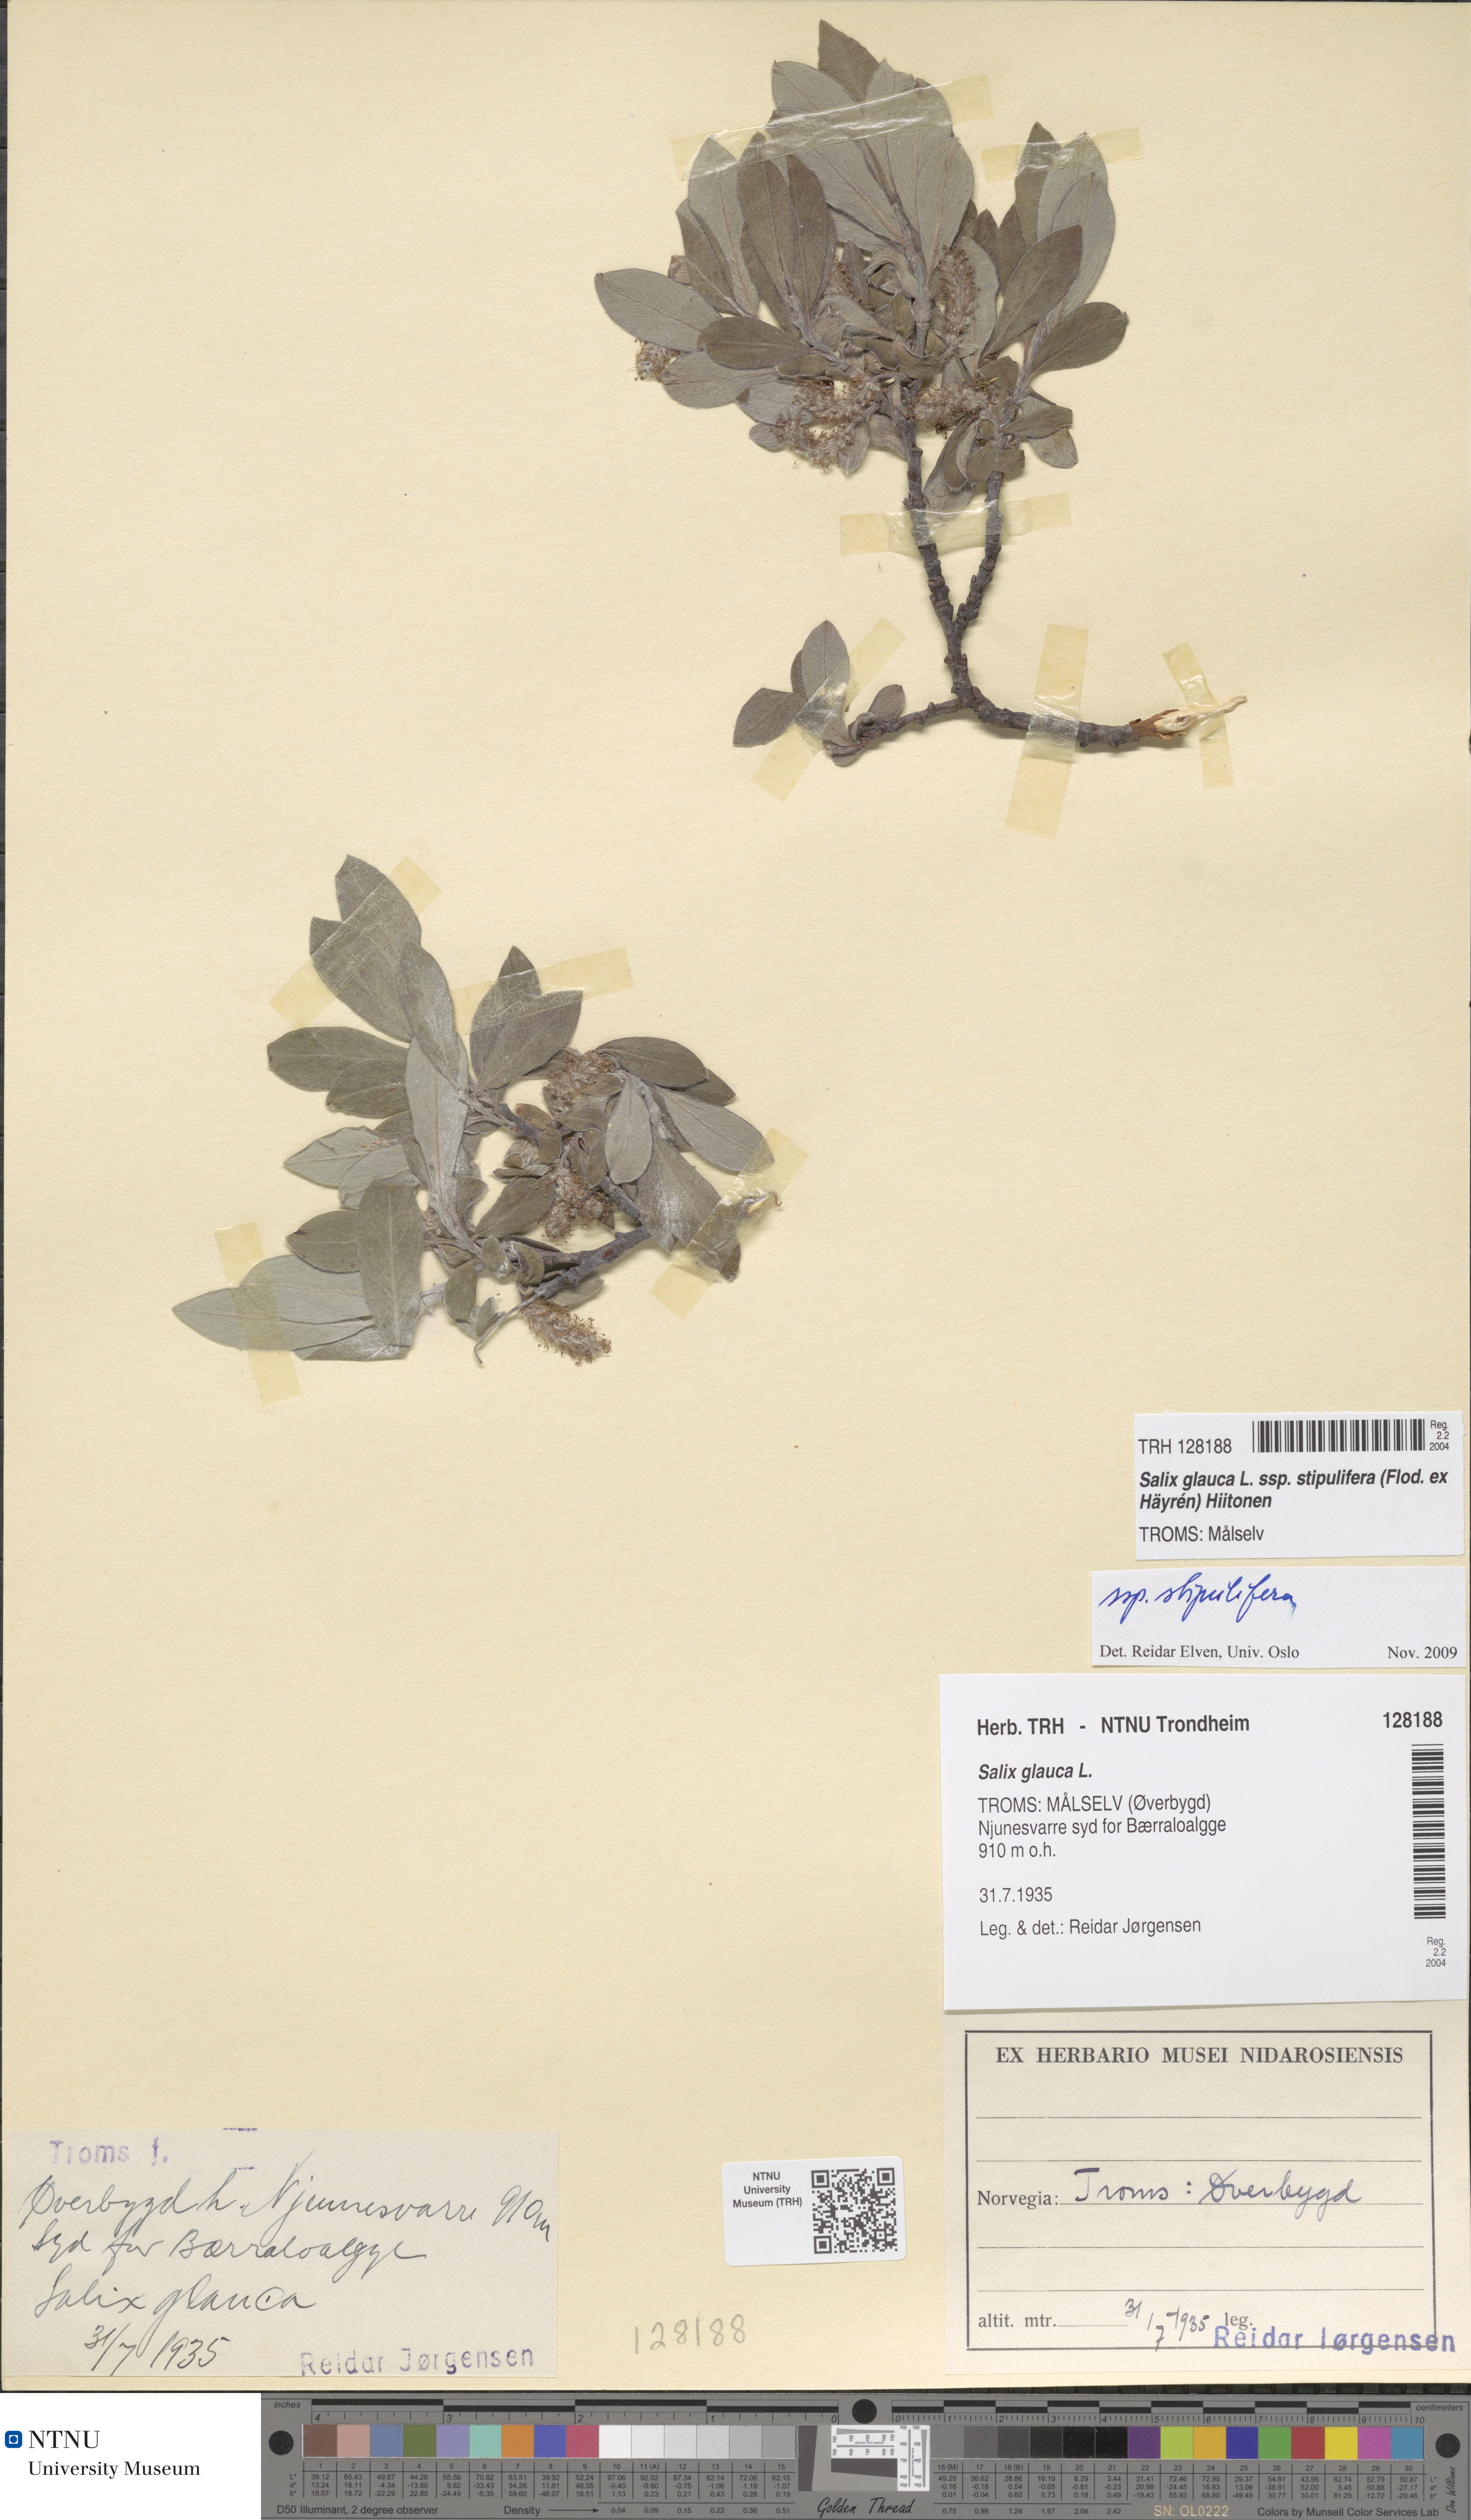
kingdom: Plantae
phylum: Tracheophyta
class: Magnoliopsida
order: Malpighiales
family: Salicaceae
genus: Salix
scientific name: Salix glauca
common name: Glaucous willow
